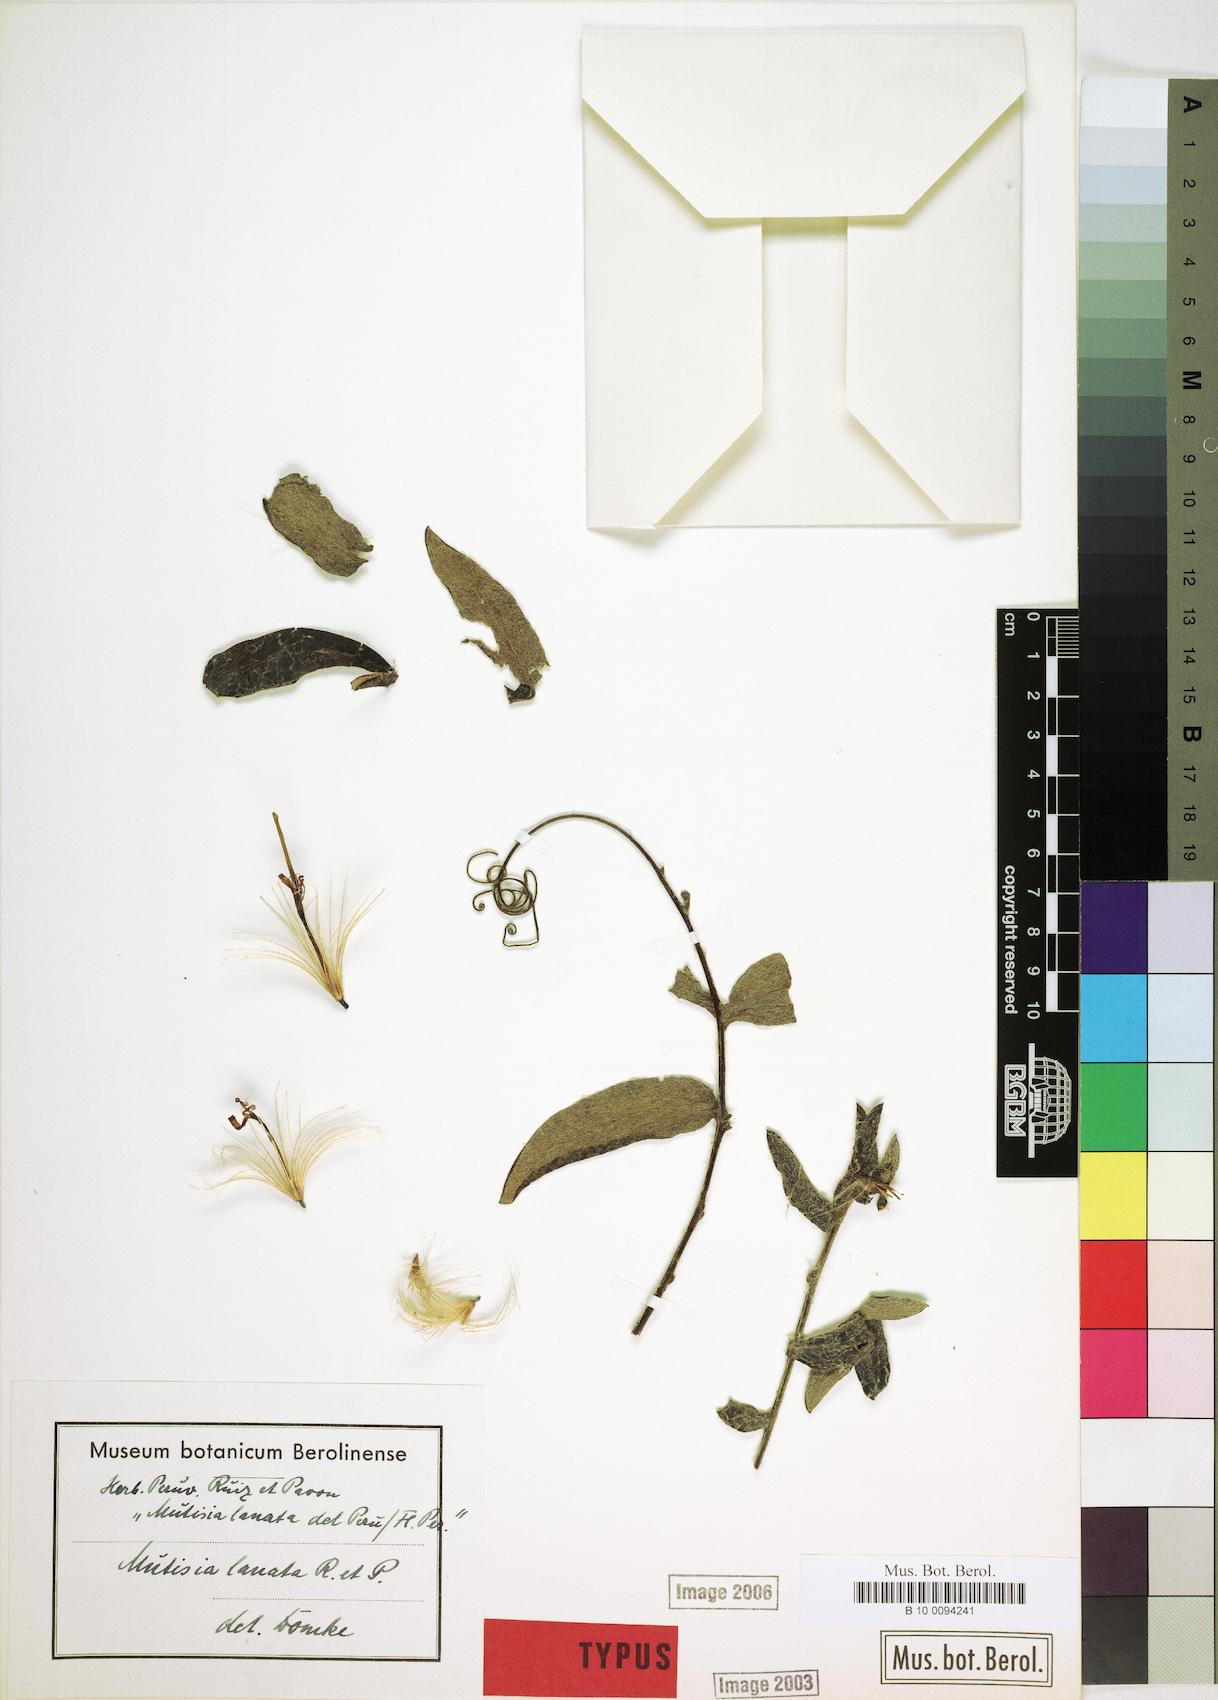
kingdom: Plantae
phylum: Tracheophyta
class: Magnoliopsida
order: Asterales
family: Asteraceae
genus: Mutisia
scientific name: Mutisia lanata
